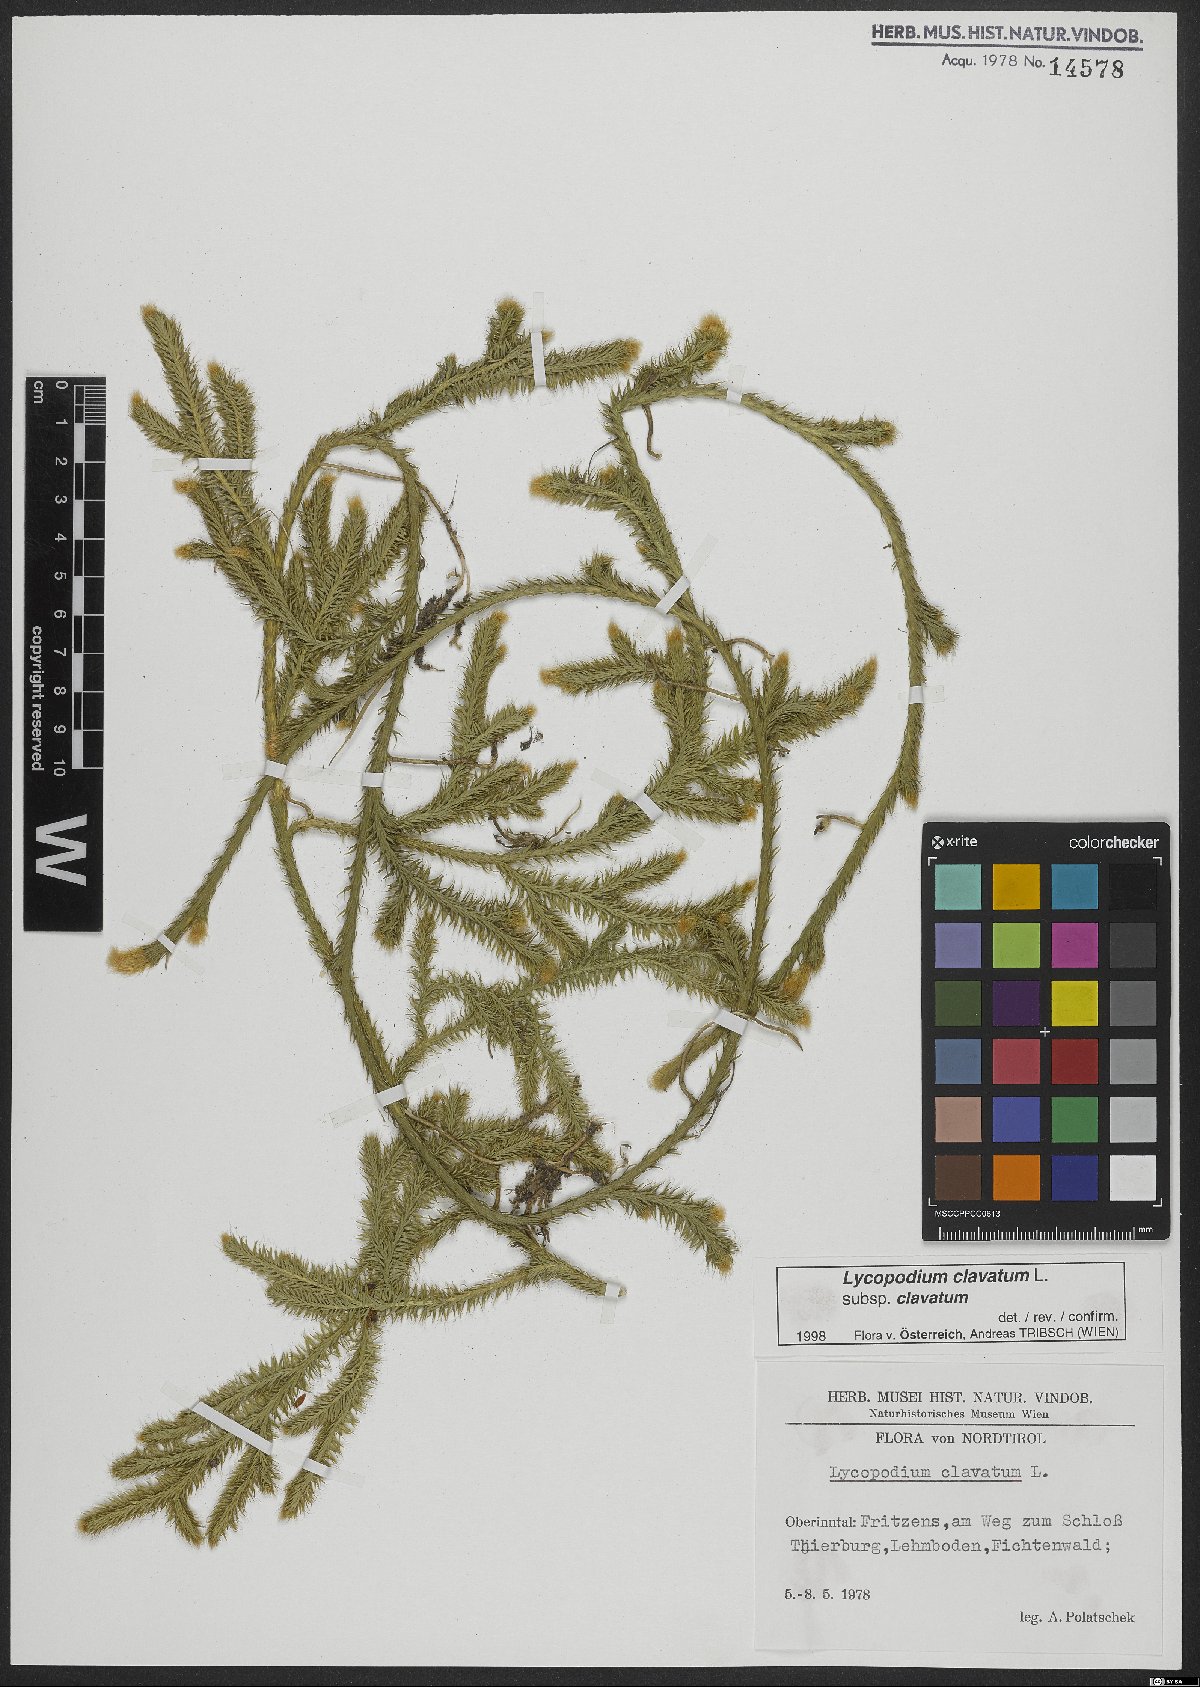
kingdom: Plantae
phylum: Tracheophyta
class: Lycopodiopsida
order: Lycopodiales
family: Lycopodiaceae
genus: Lycopodium
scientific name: Lycopodium clavatum
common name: Stag's-horn clubmoss
